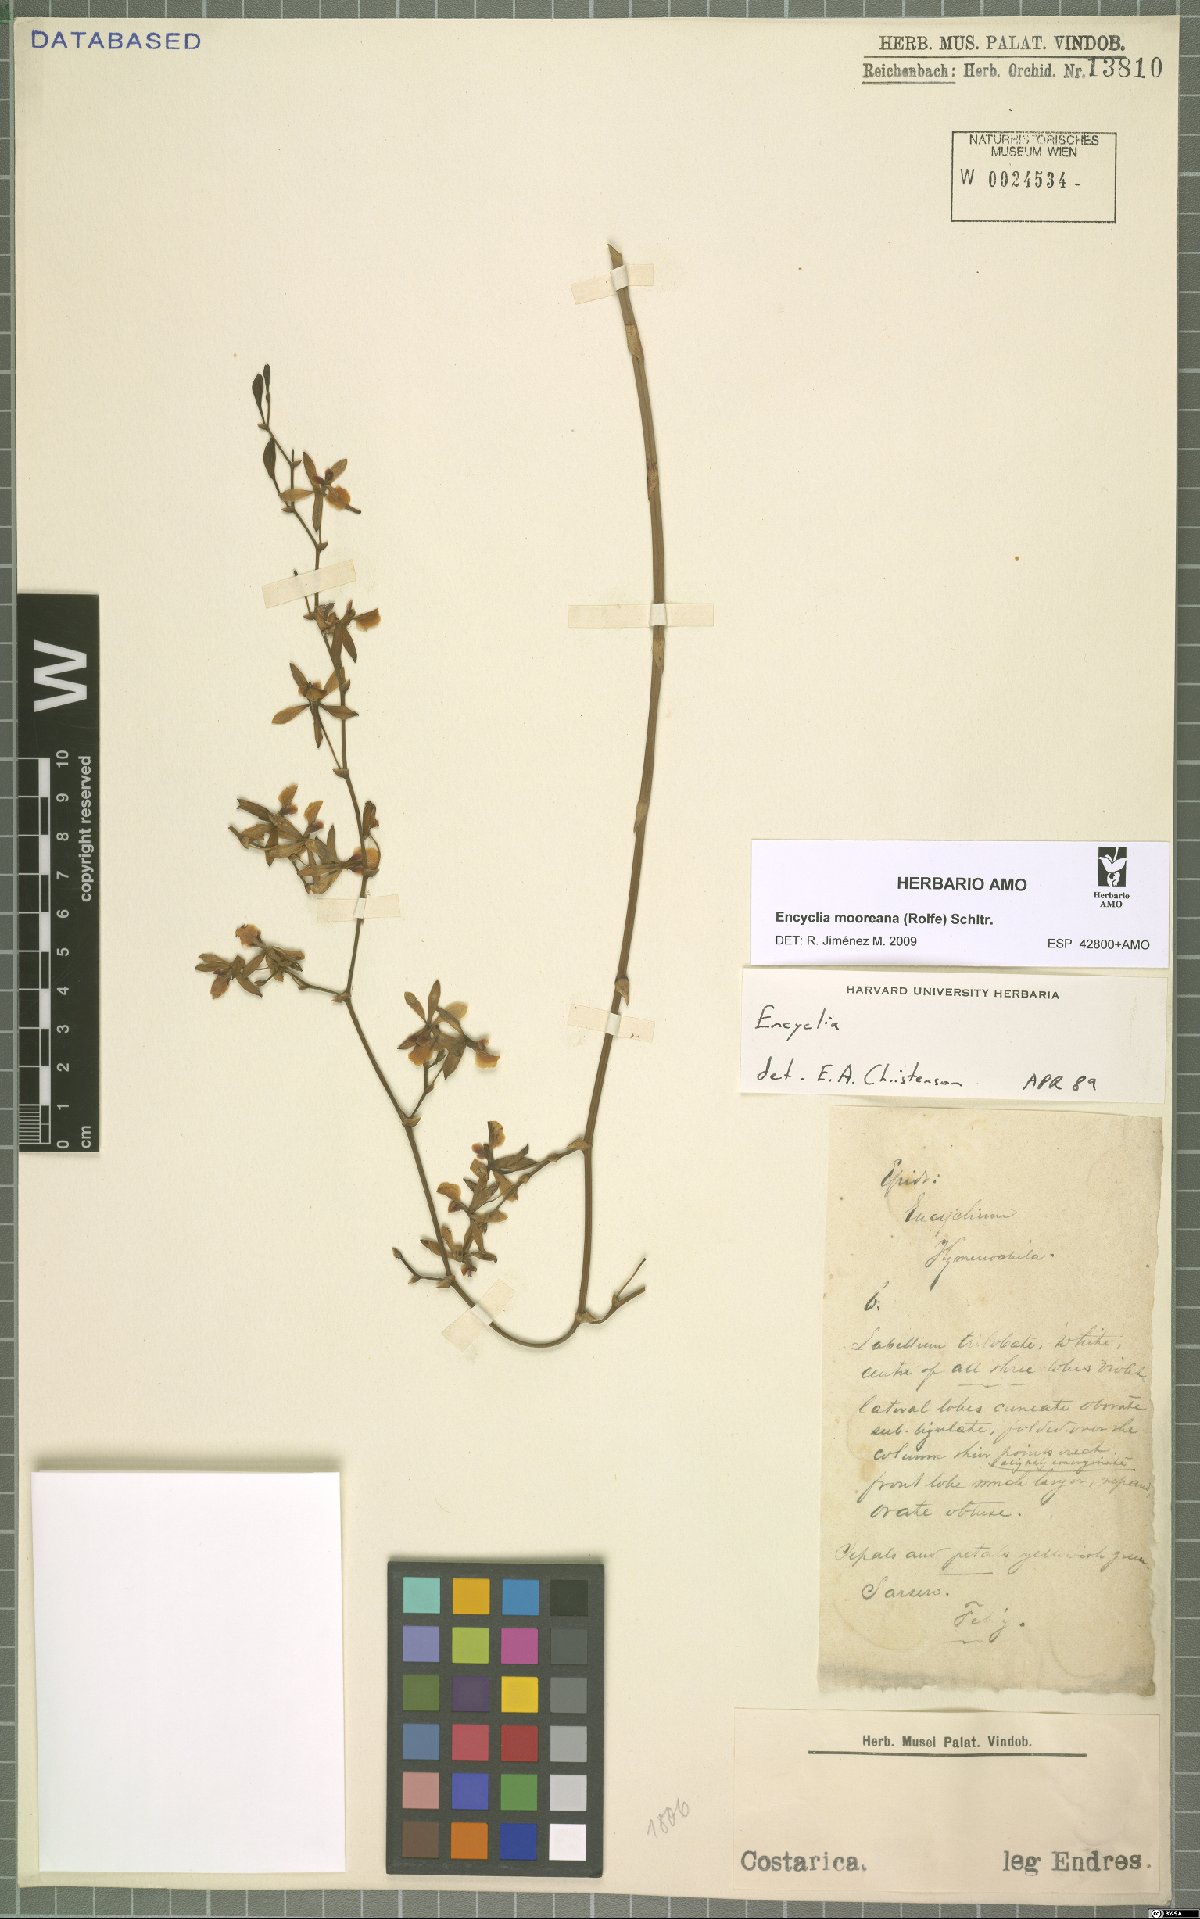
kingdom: Plantae
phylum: Tracheophyta
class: Liliopsida
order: Asparagales
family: Orchidaceae
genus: Encyclia
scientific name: Encyclia mooreana
